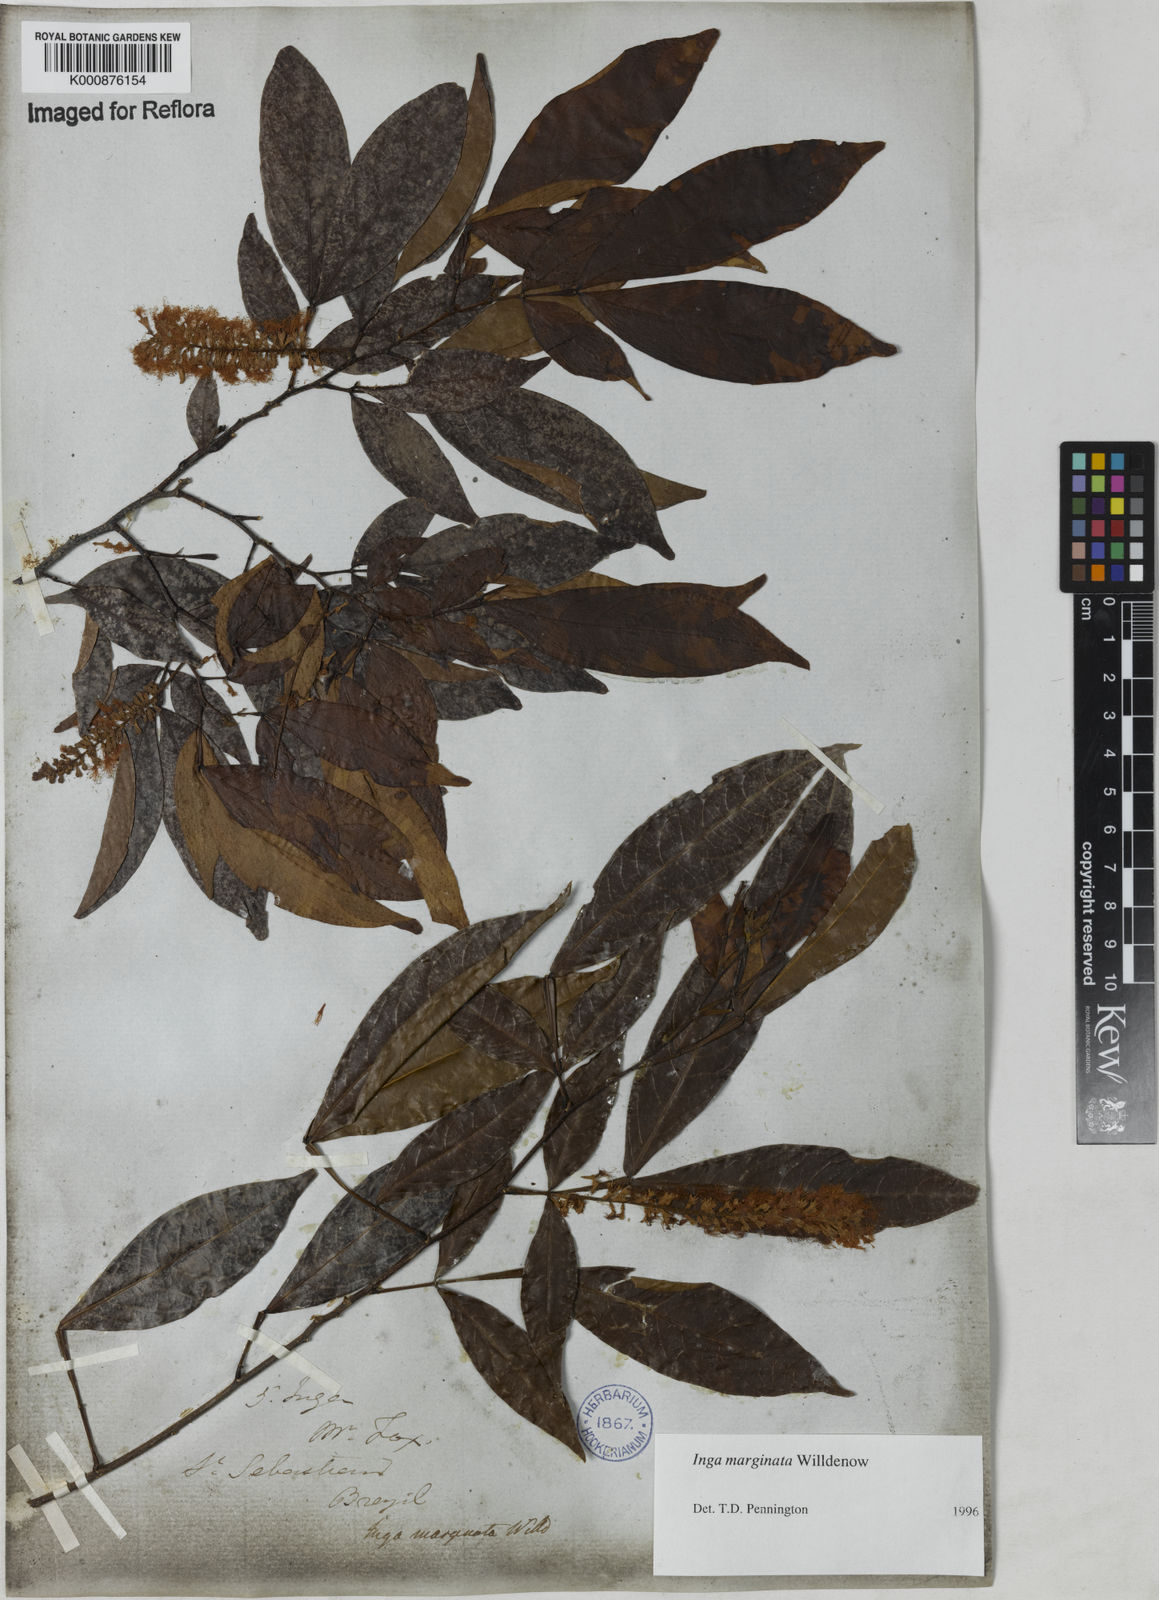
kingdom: Plantae
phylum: Tracheophyta
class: Magnoliopsida
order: Fabales
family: Fabaceae
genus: Inga
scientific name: Inga marginata
